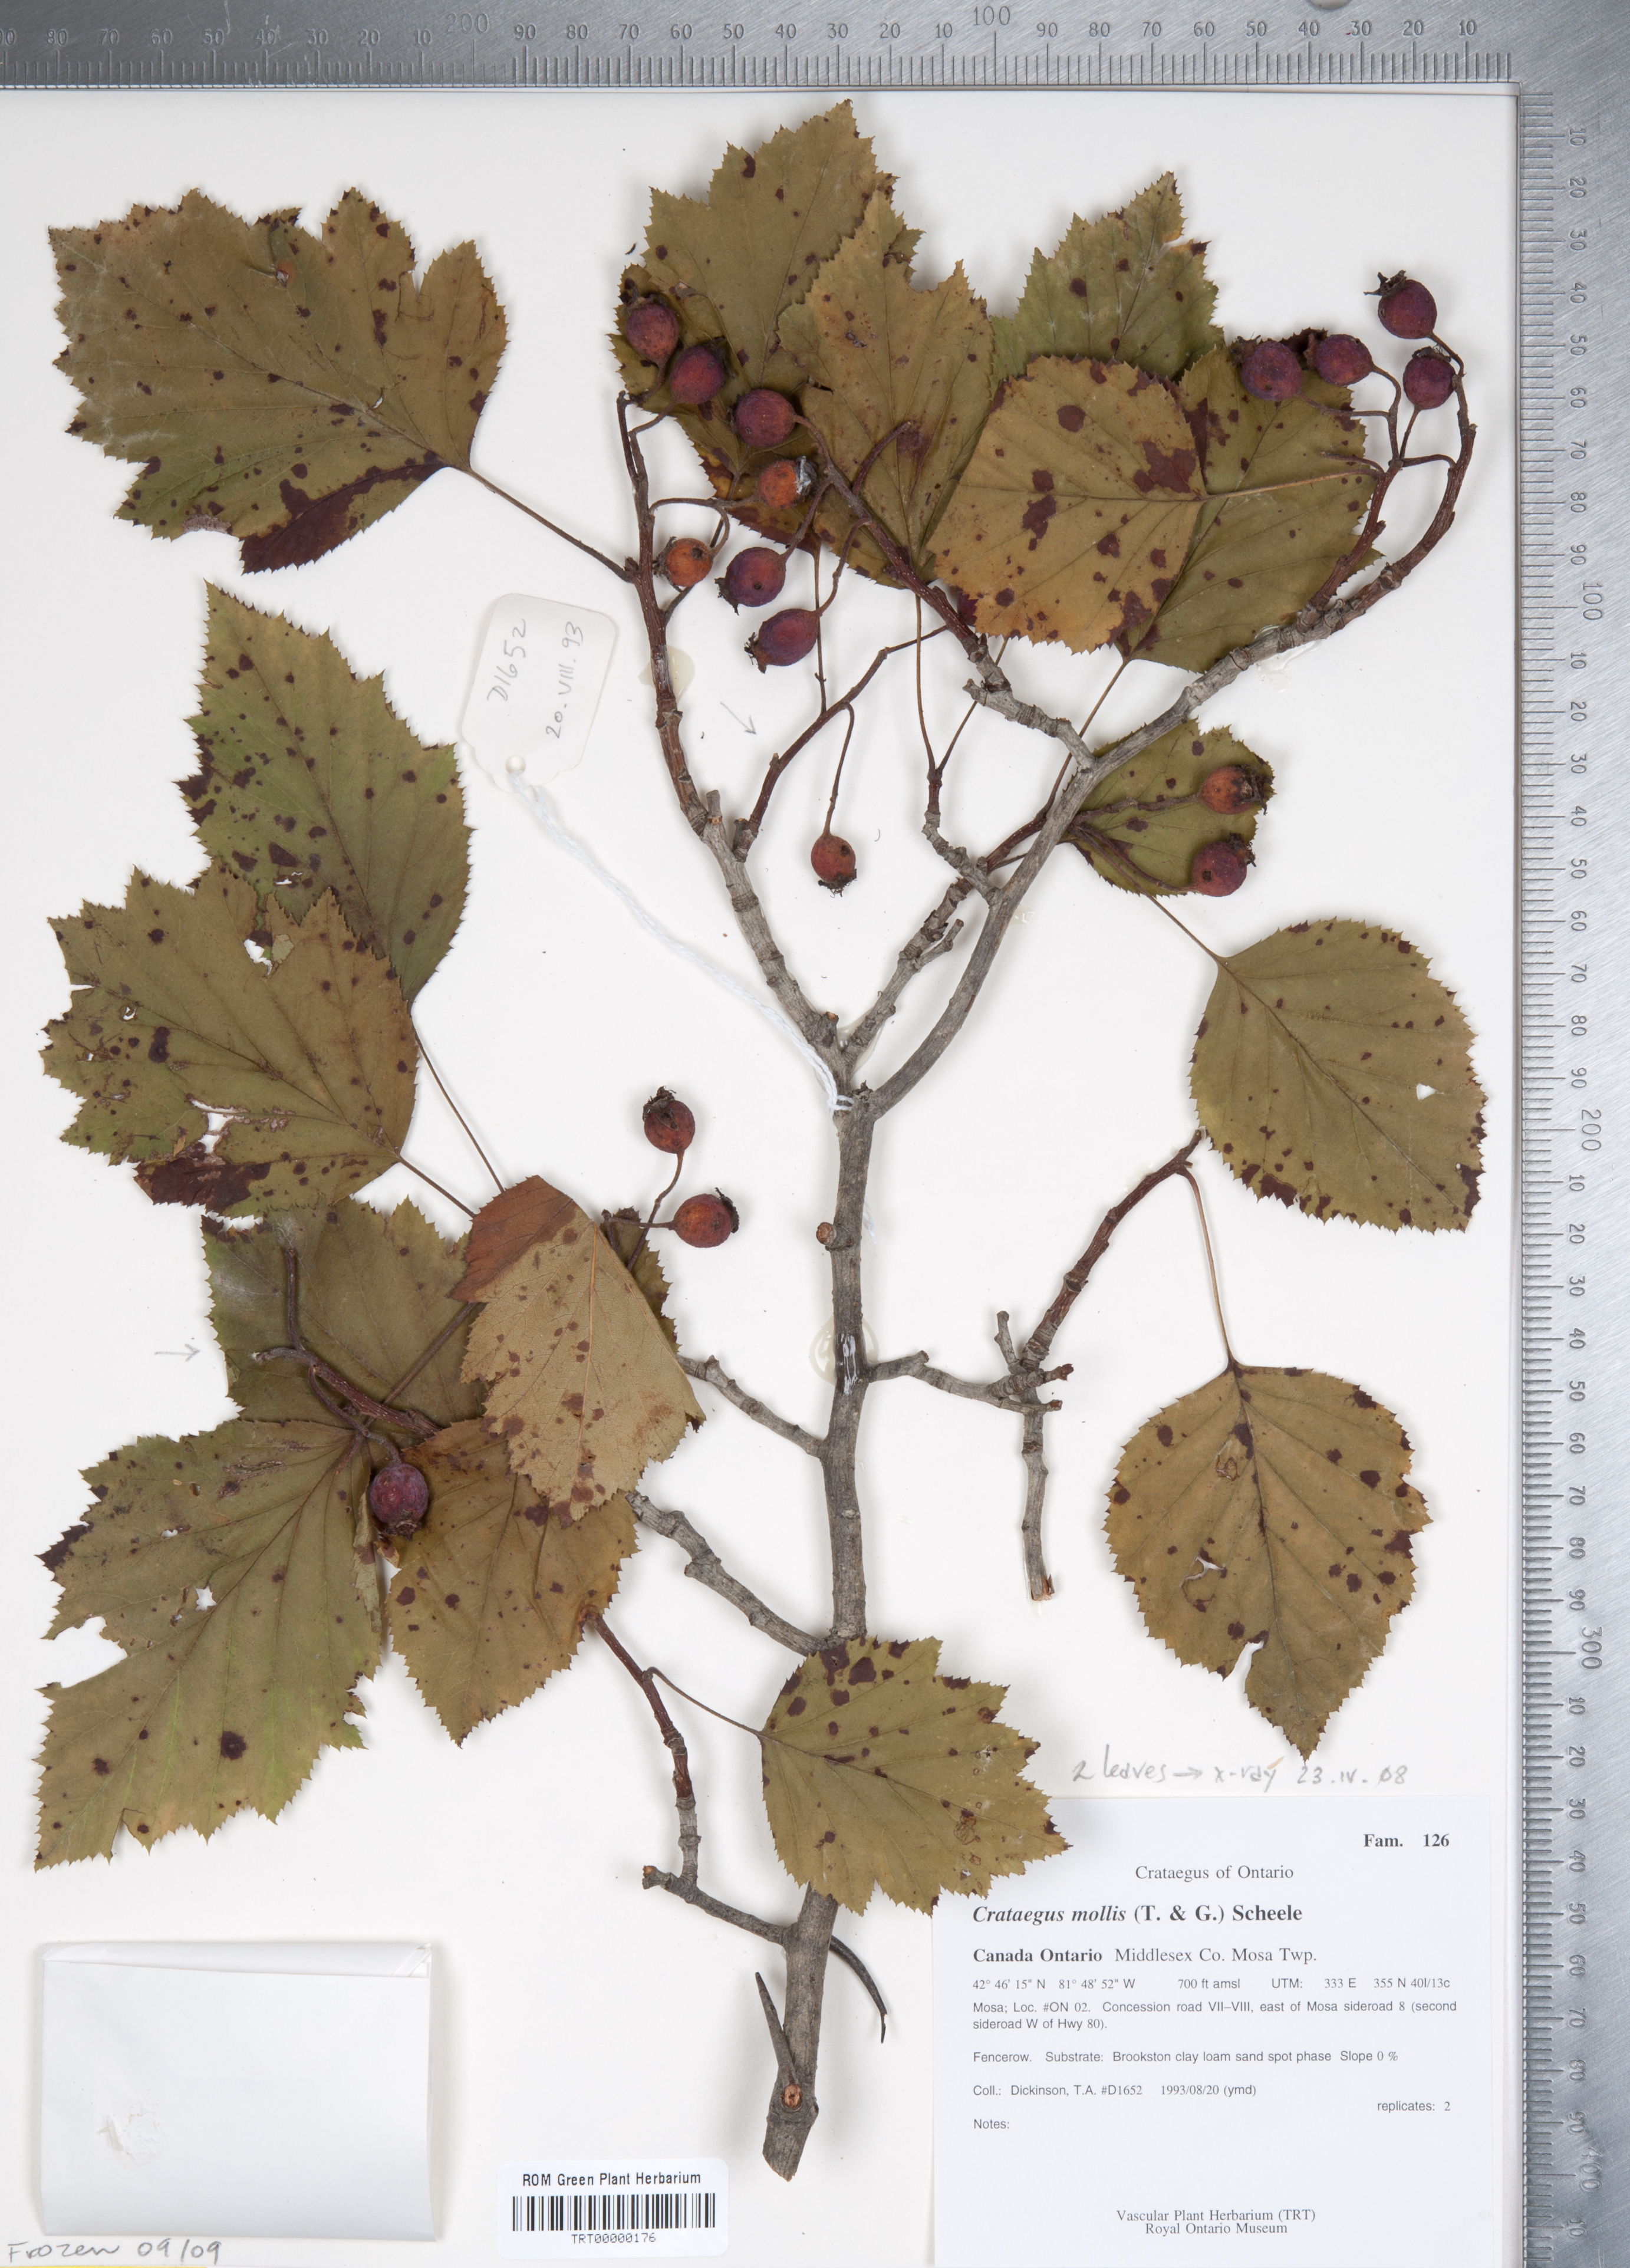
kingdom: Plantae
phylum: Tracheophyta
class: Magnoliopsida
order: Rosales
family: Rosaceae
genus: Crataegus
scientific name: Crataegus mollis
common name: Downy hawthorn
